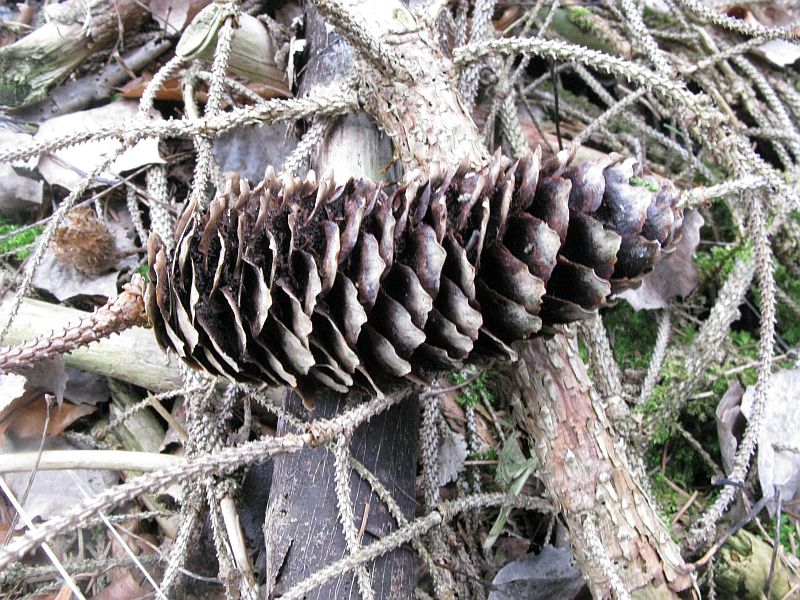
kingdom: Fungi
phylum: Basidiomycota
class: Pucciniomycetes
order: Pucciniales
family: Pucciniastraceae
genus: Thekopsora
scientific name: Thekopsora areolata
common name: grankogle-nålerust
